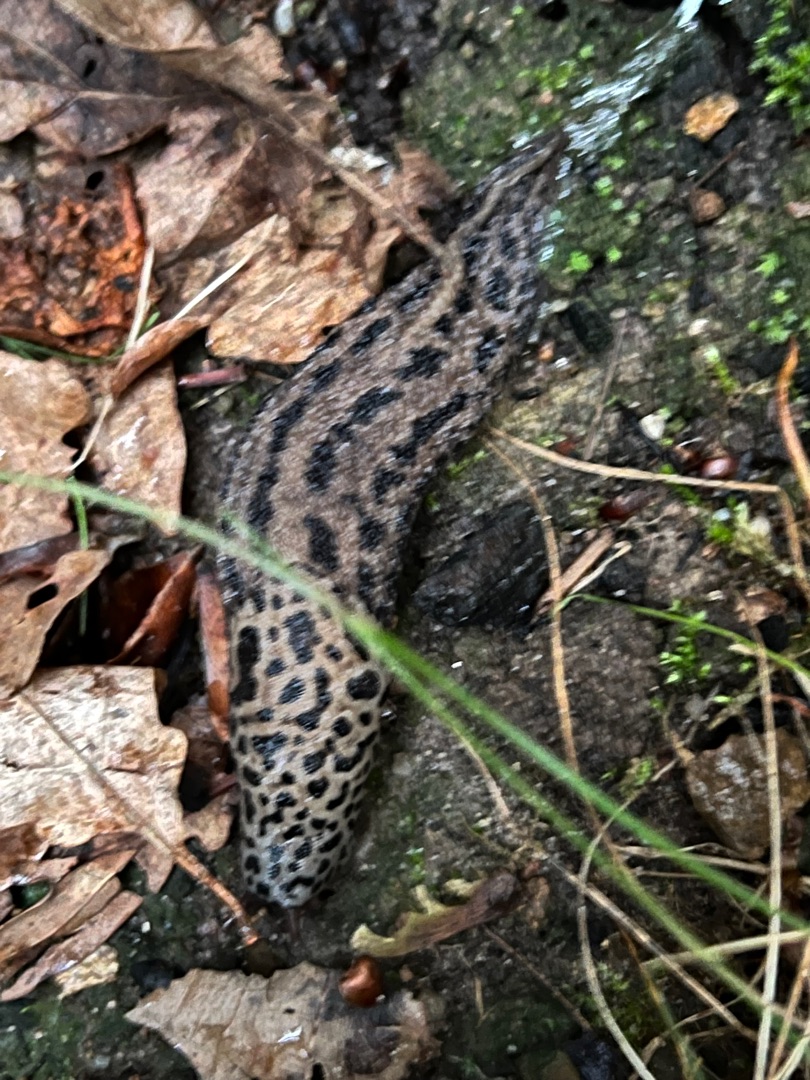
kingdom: Animalia
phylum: Mollusca
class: Gastropoda
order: Stylommatophora
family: Limacidae
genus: Limax
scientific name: Limax maximus
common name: Pantersnegl
